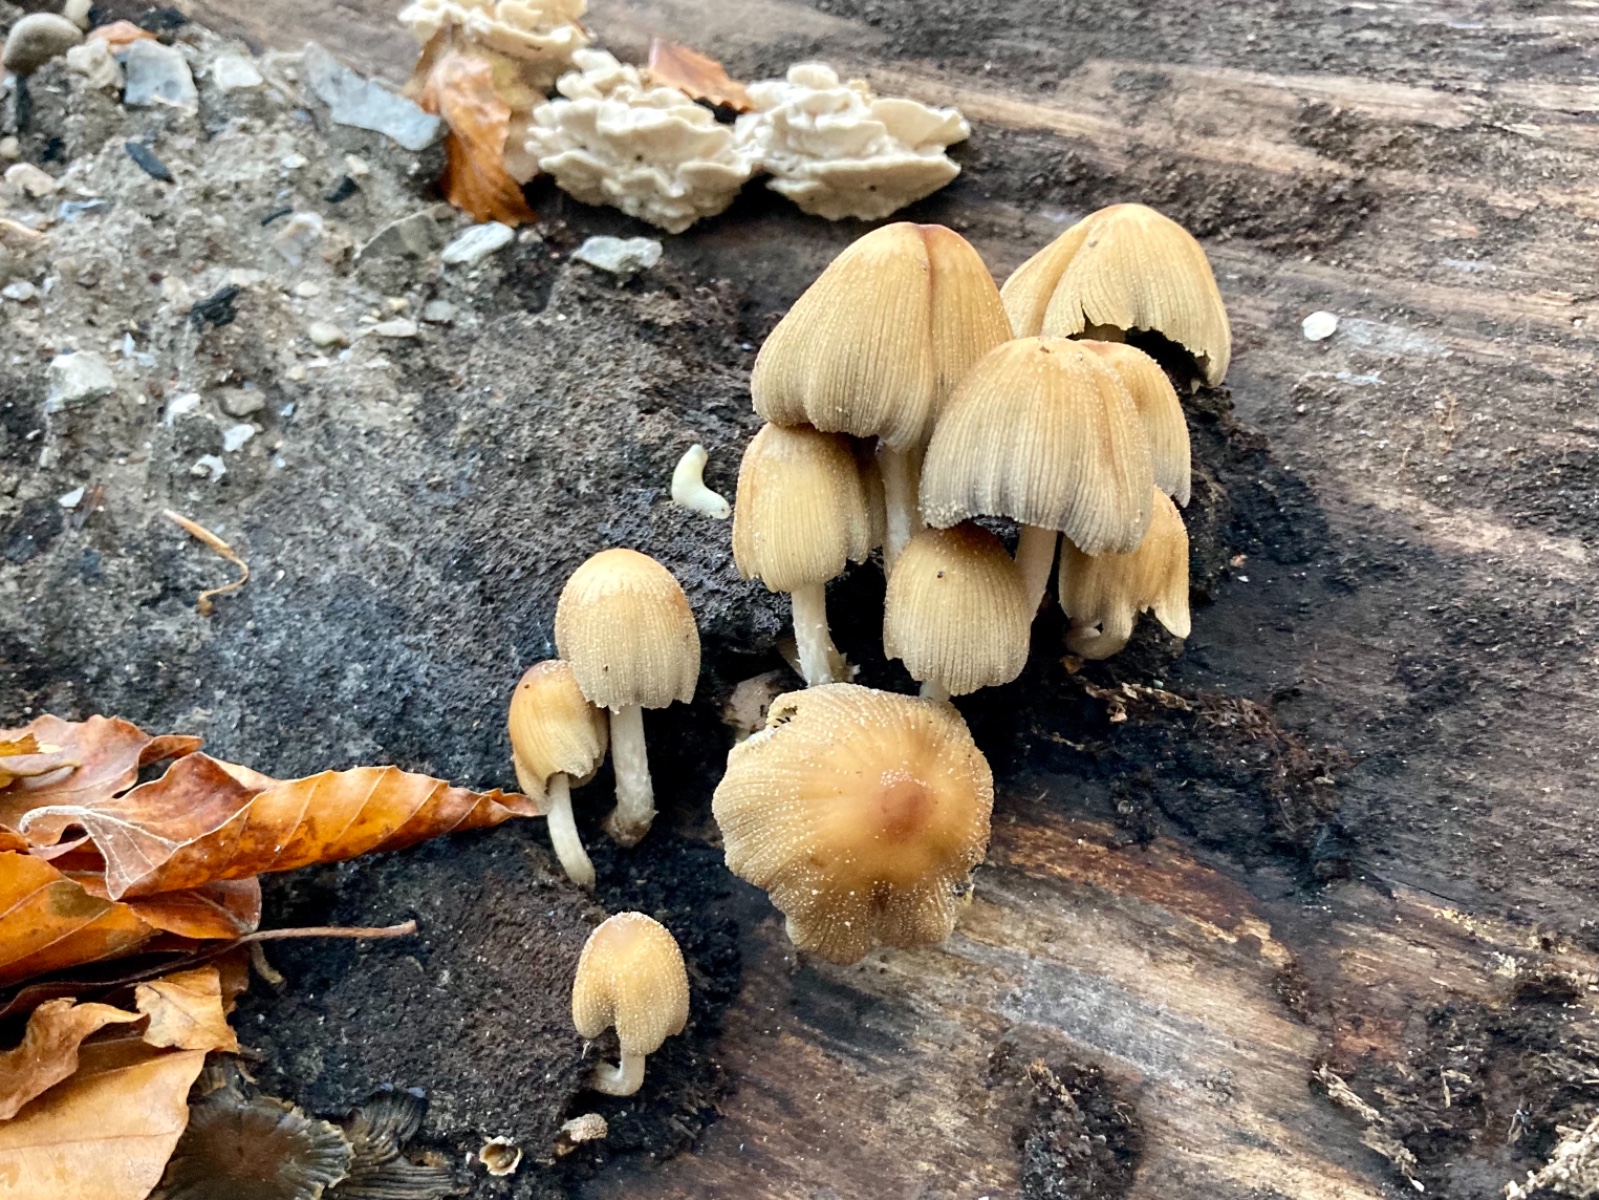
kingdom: Fungi
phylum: Basidiomycota
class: Agaricomycetes
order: Agaricales
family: Psathyrellaceae
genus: Coprinellus
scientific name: Coprinellus micaceus
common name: glimmer-blækhat
